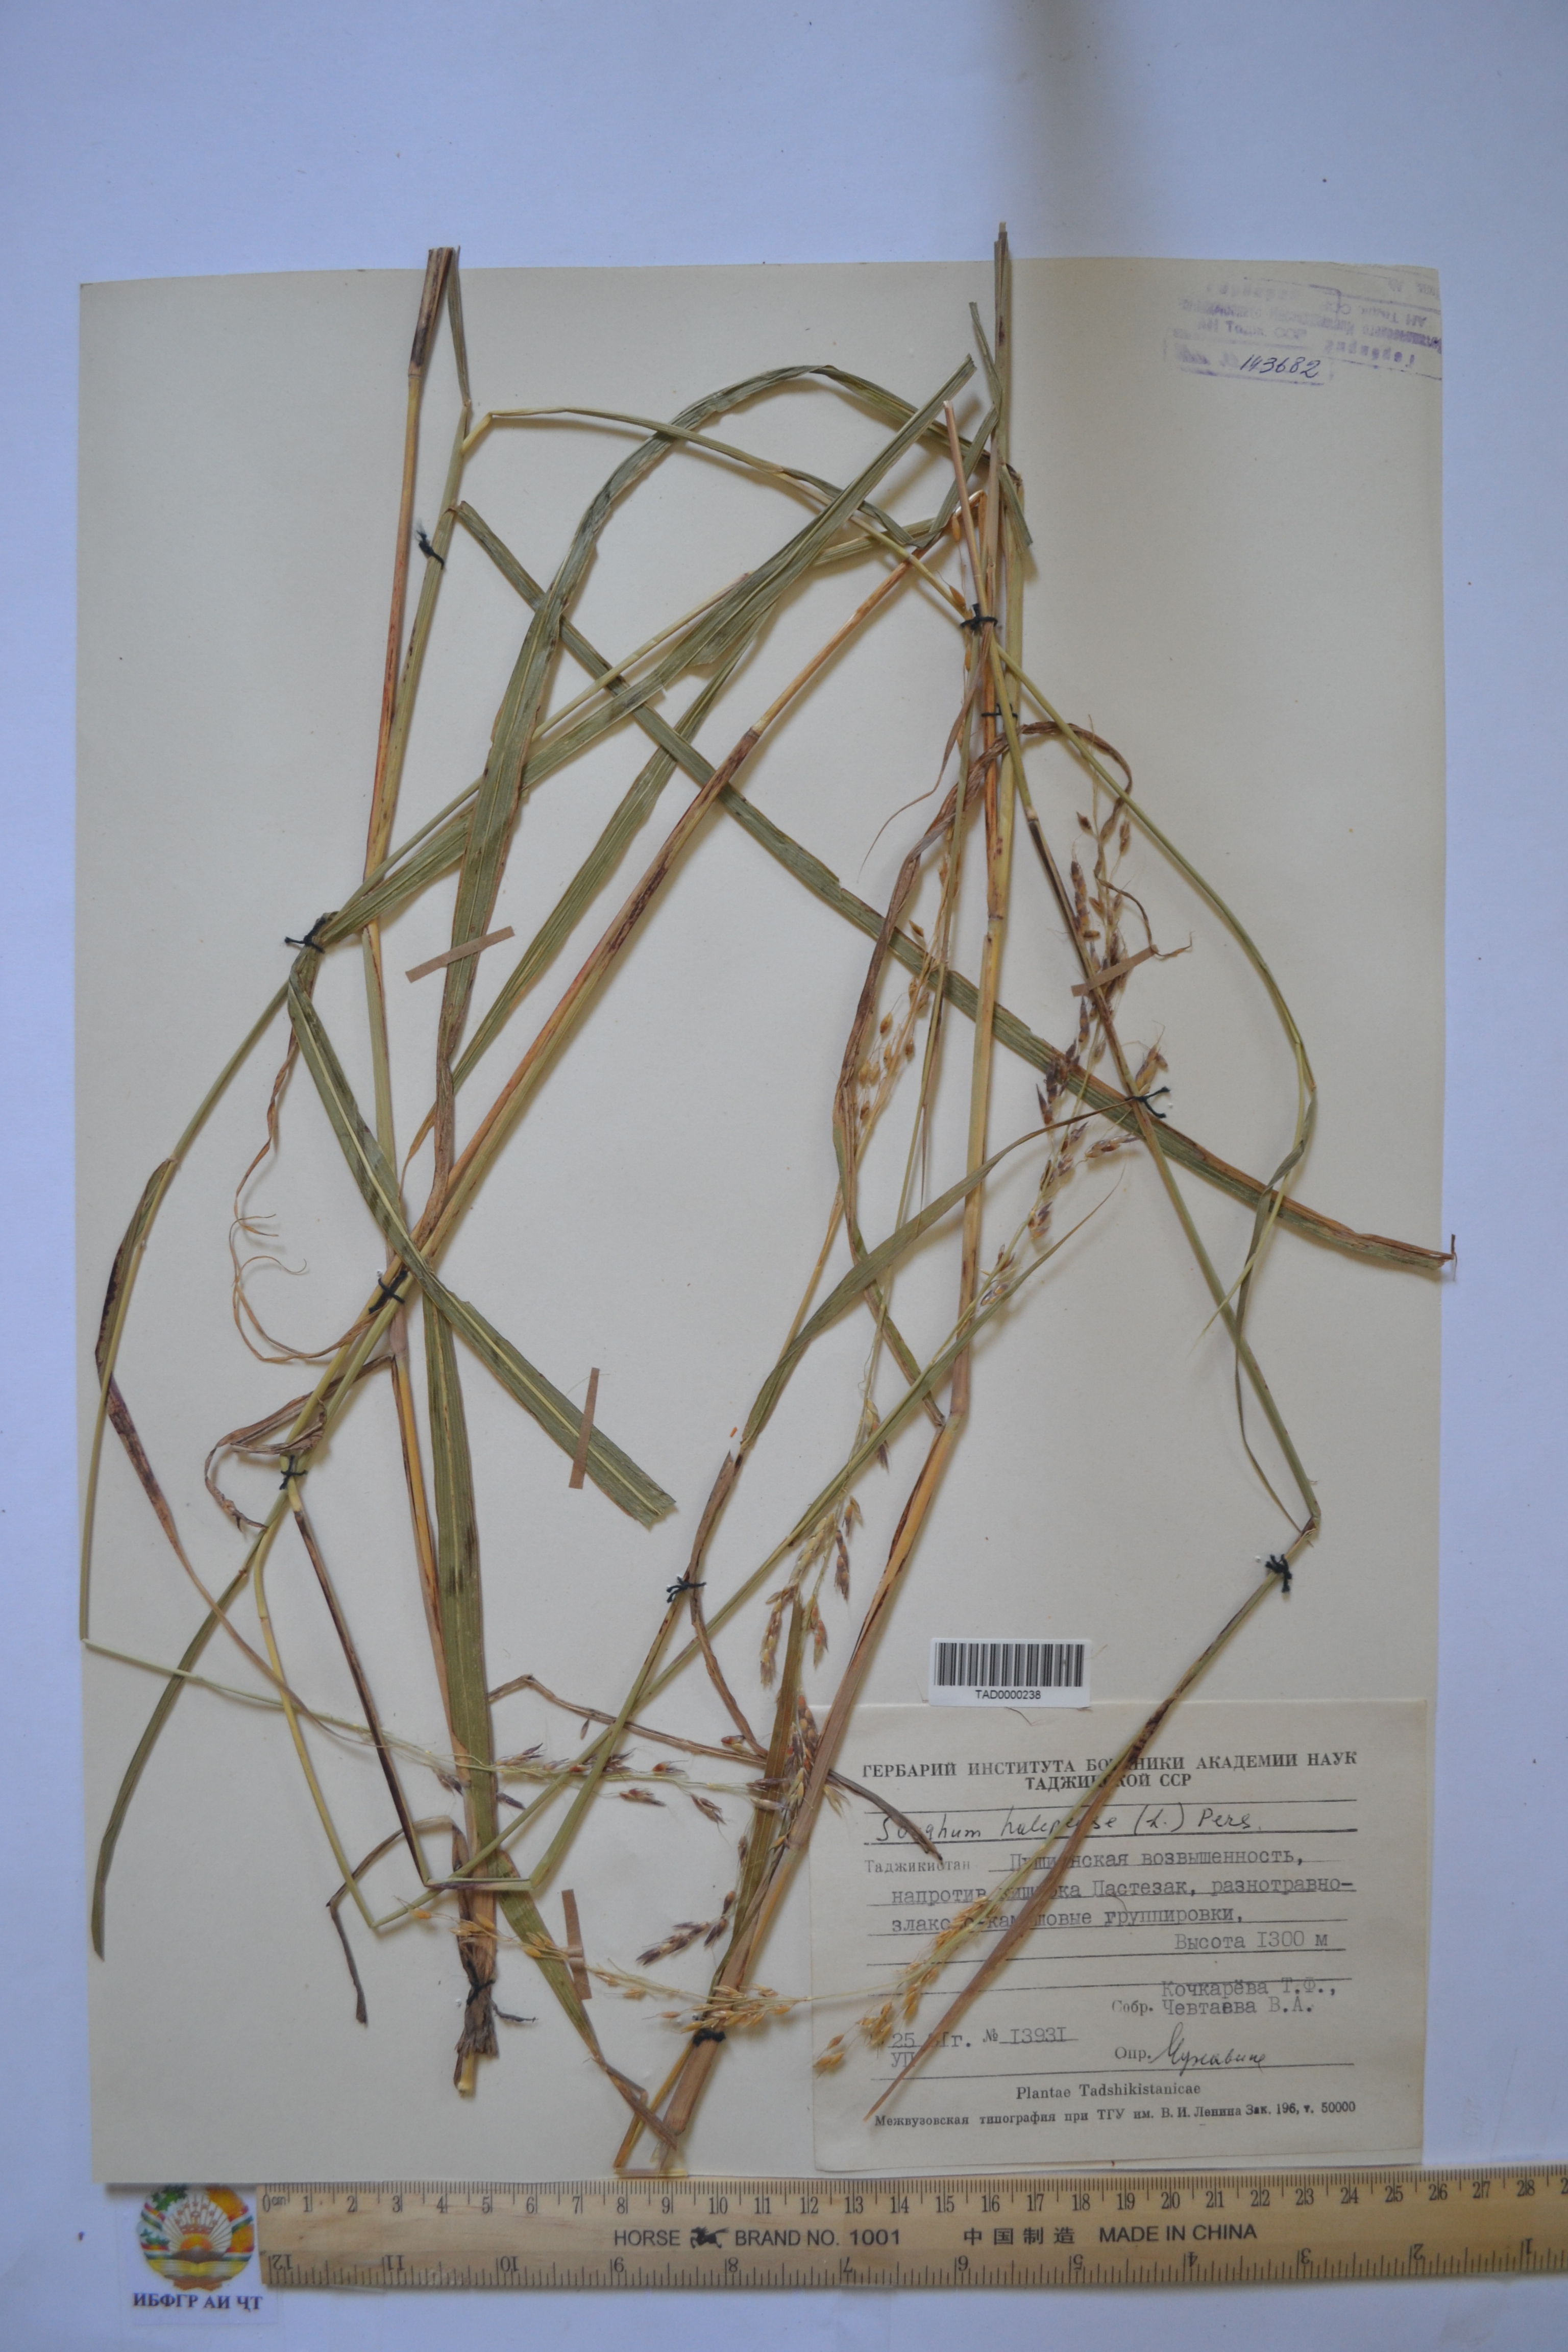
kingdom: Plantae
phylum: Tracheophyta
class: Liliopsida
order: Poales
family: Poaceae
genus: Sorghum
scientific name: Sorghum halepense
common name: Johnson-grass
